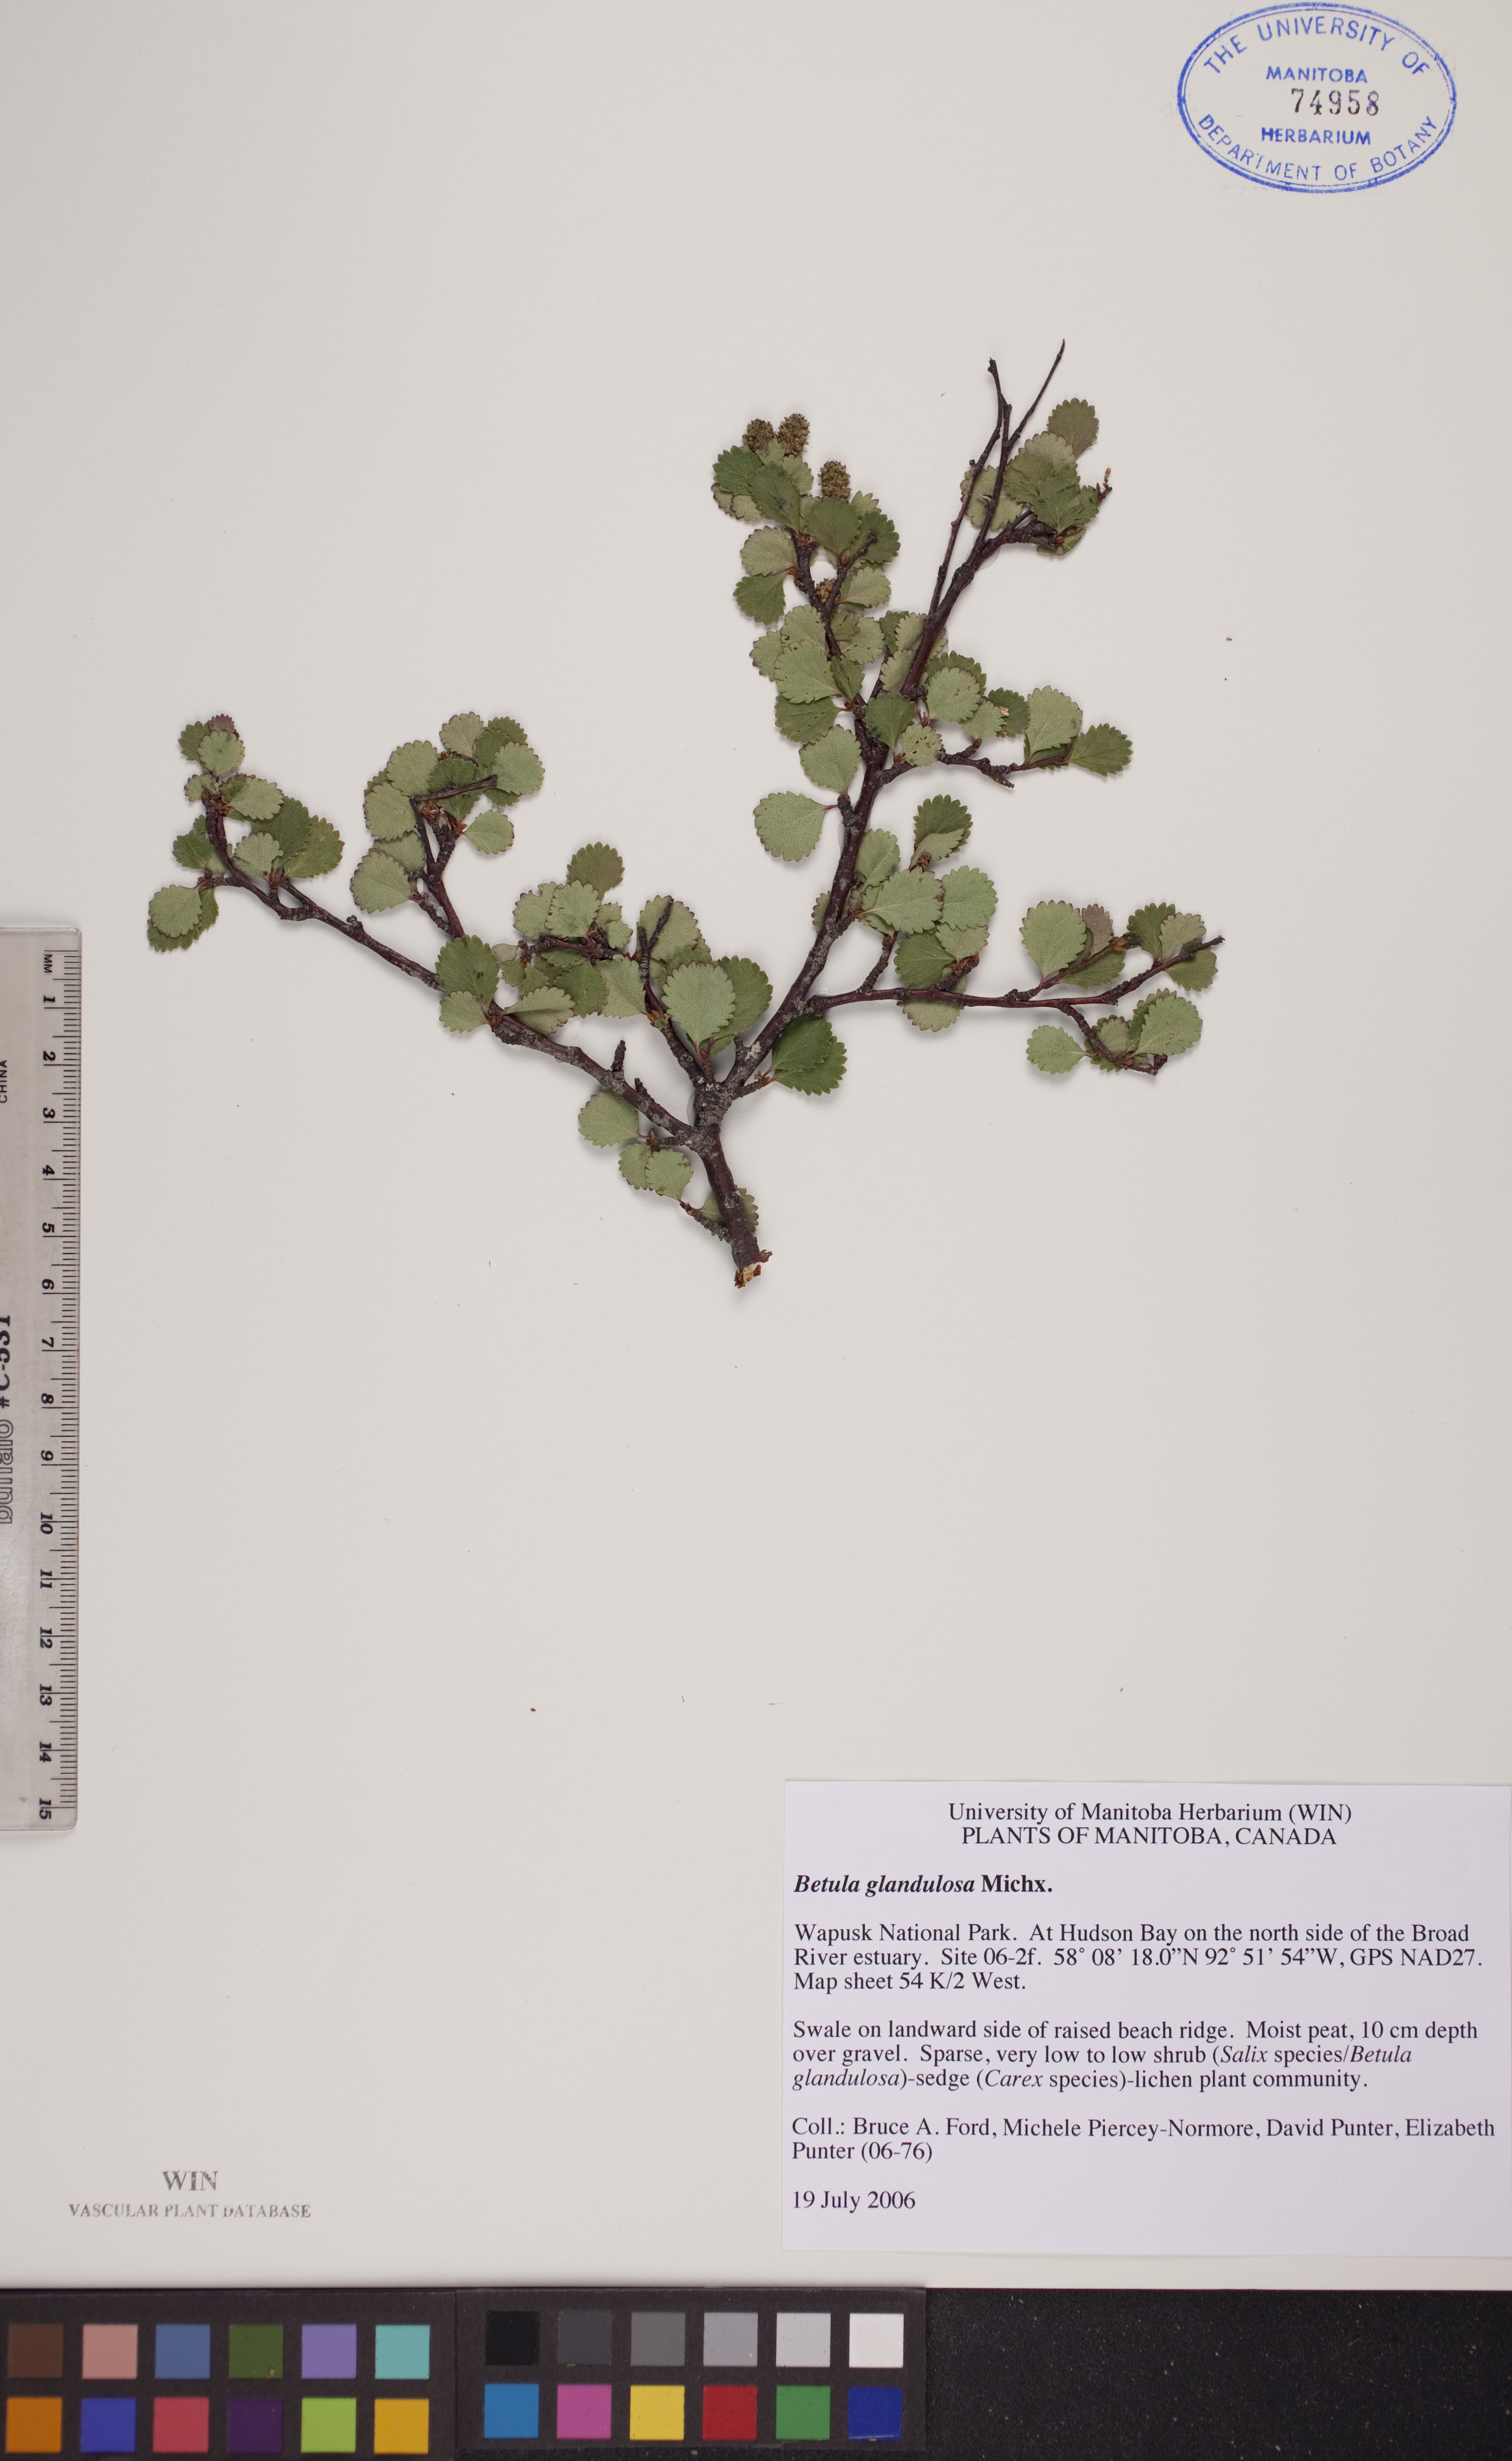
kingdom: Plantae
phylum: Tracheophyta
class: Magnoliopsida
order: Fagales
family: Betulaceae
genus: Betula
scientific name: Betula glandulosa
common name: Dwarf birch
